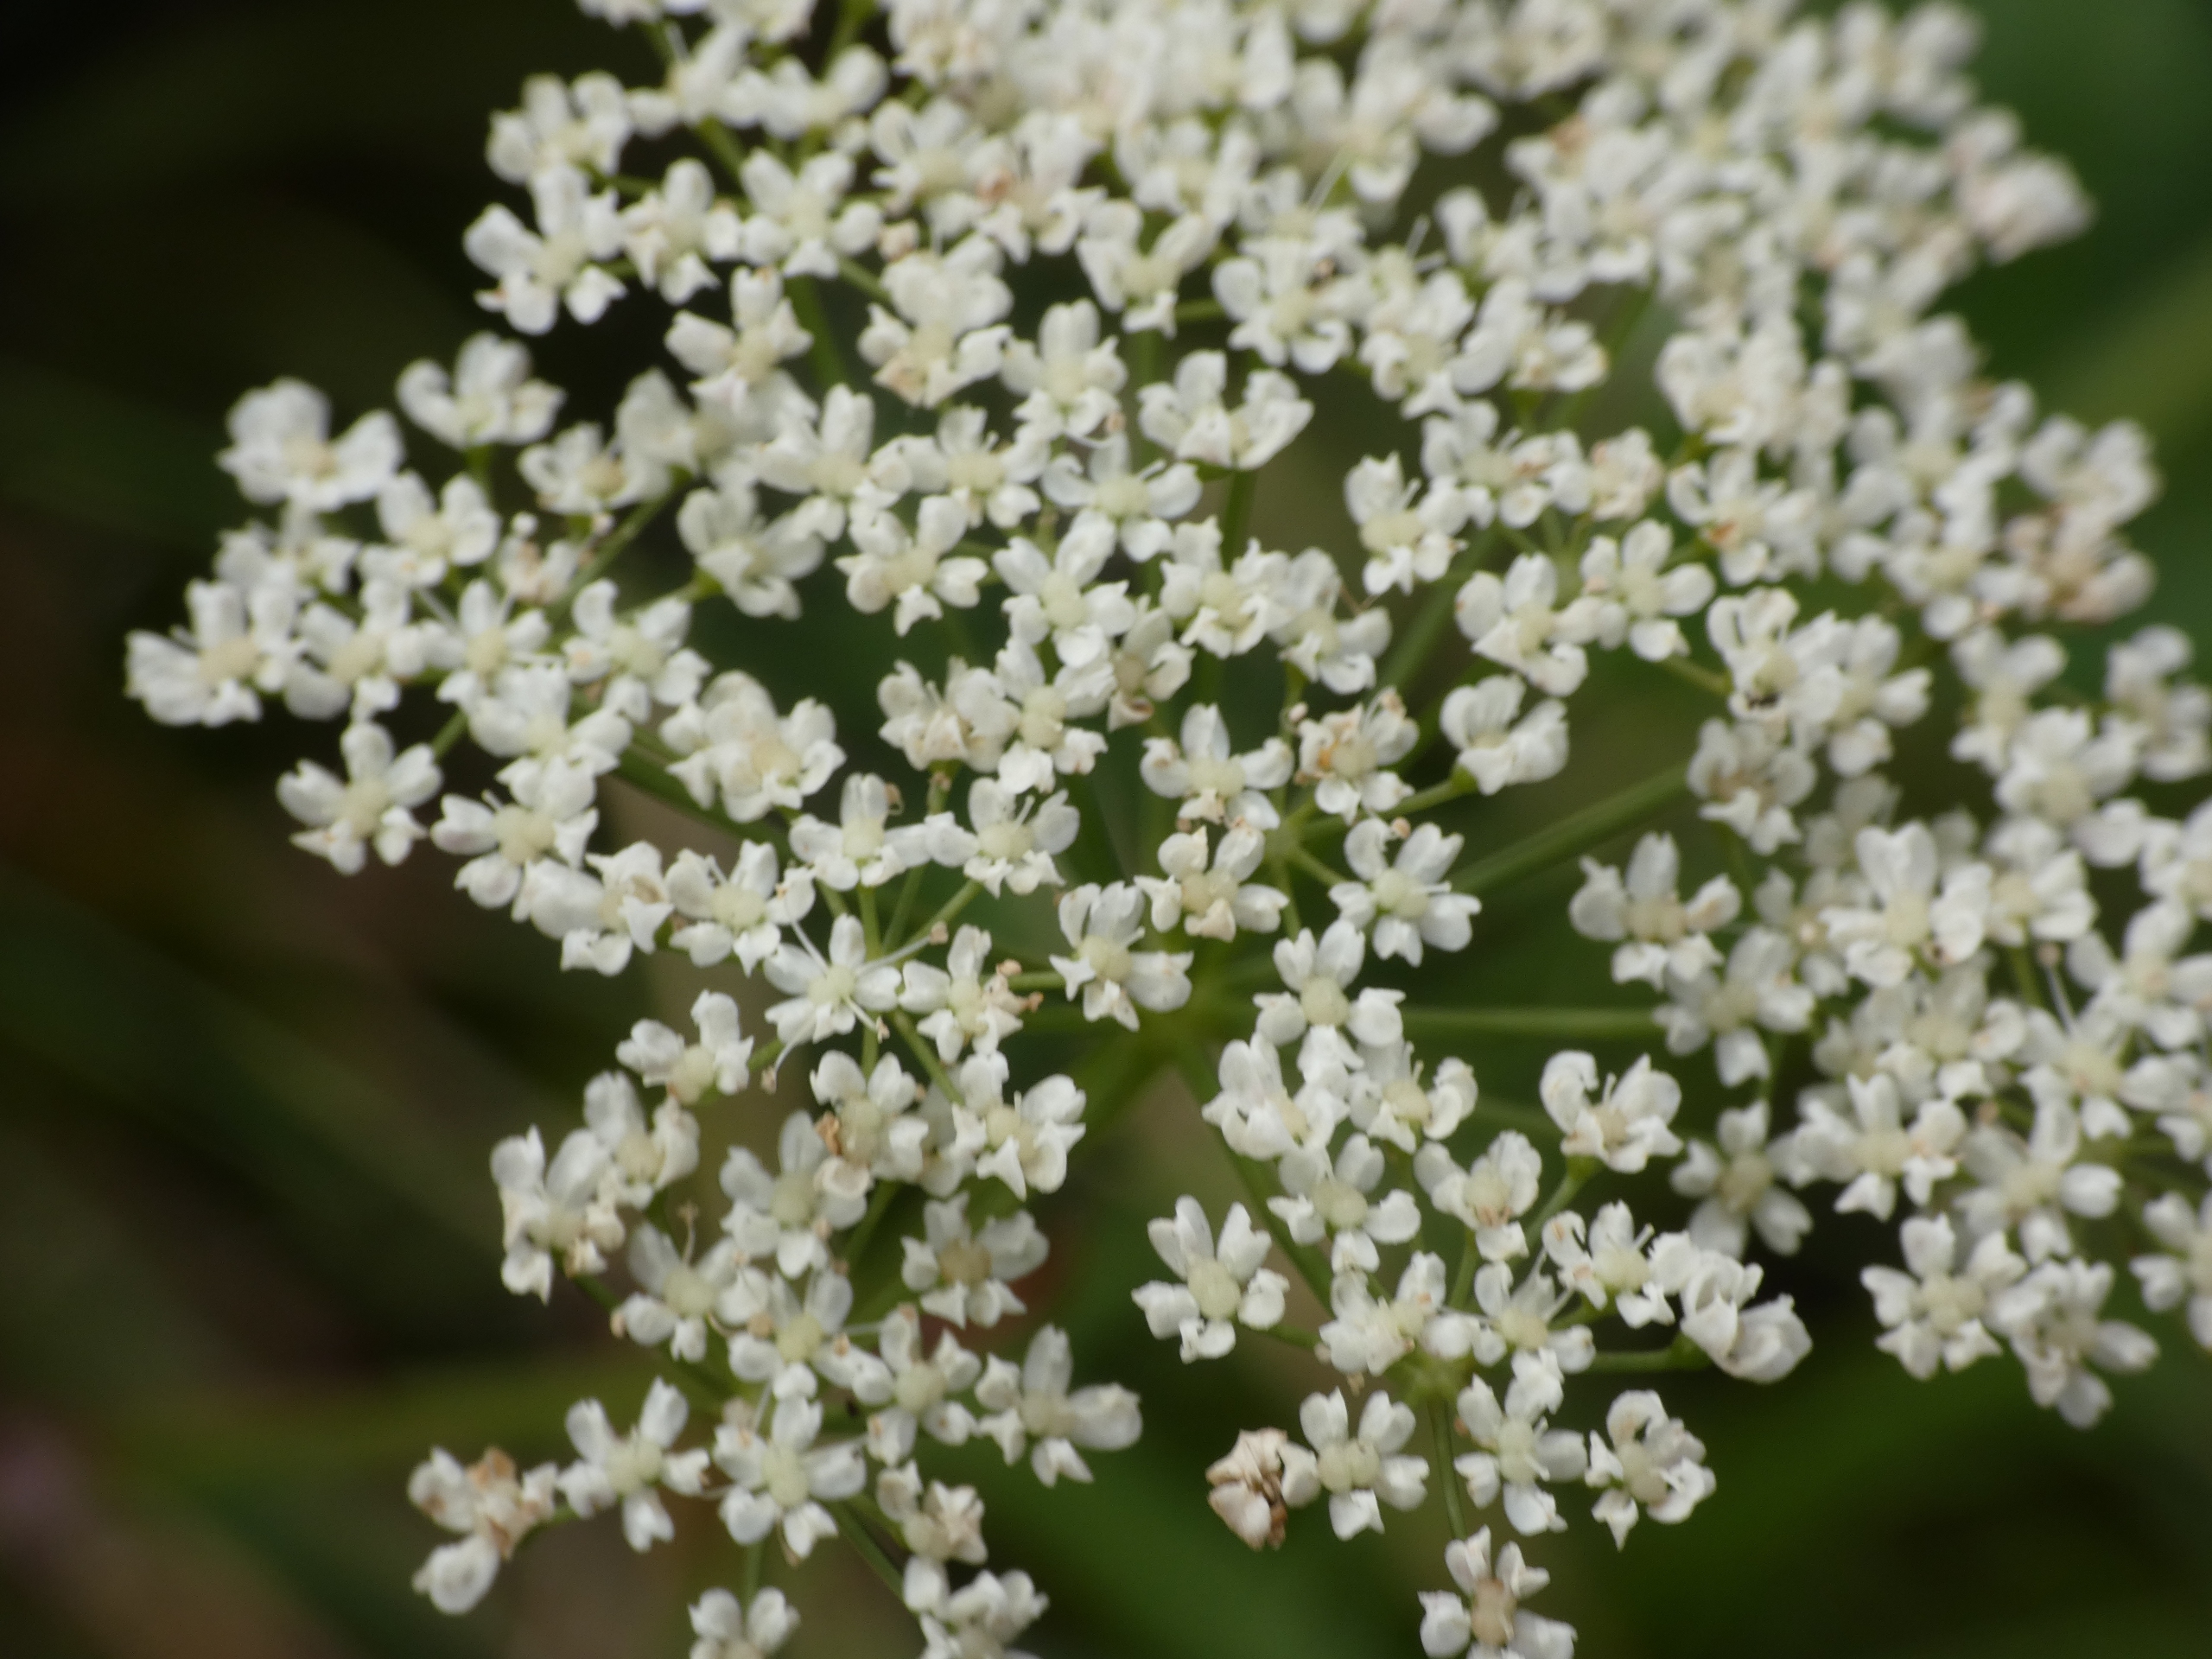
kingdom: Plantae
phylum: Tracheophyta
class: Magnoliopsida
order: Apiales
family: Apiaceae
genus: Pimpinella
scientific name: Pimpinella saxifraga
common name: Almindelig pimpinelle
